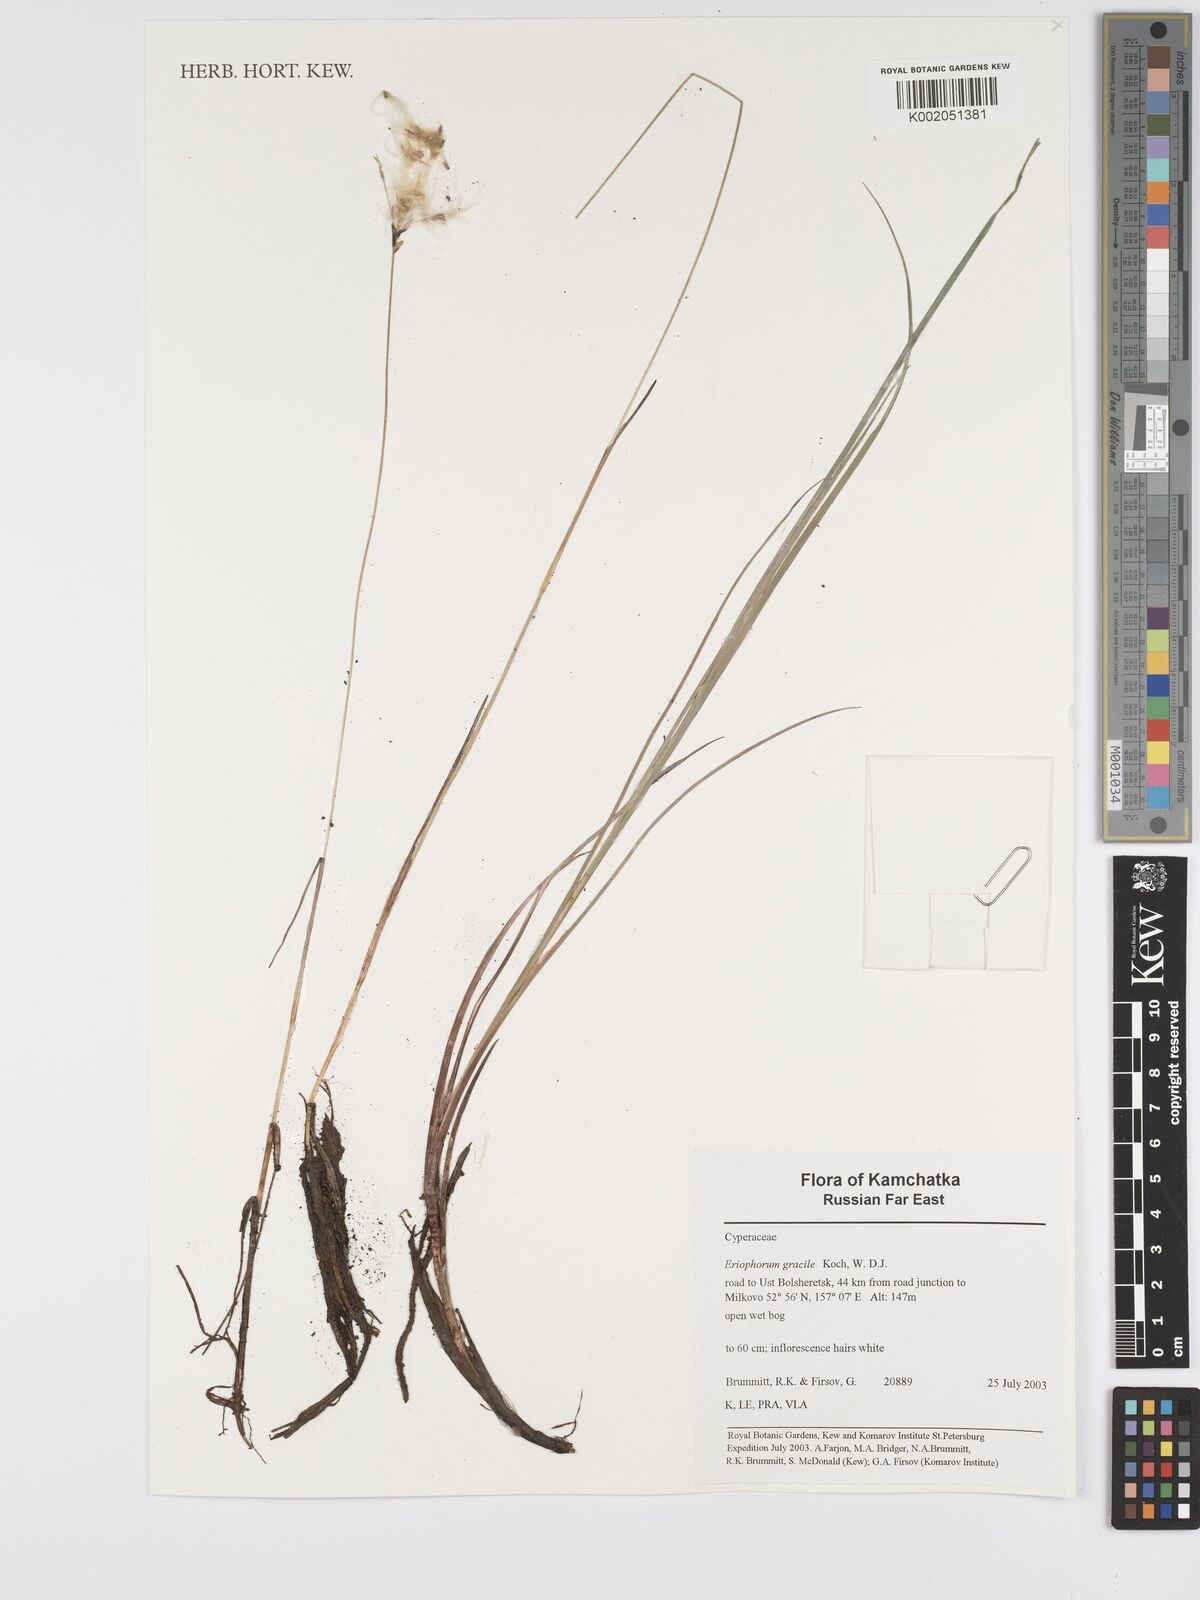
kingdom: Plantae
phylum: Tracheophyta
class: Liliopsida
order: Poales
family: Cyperaceae
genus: Eriophorum
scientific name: Eriophorum gracile
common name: Slender cottongrass
